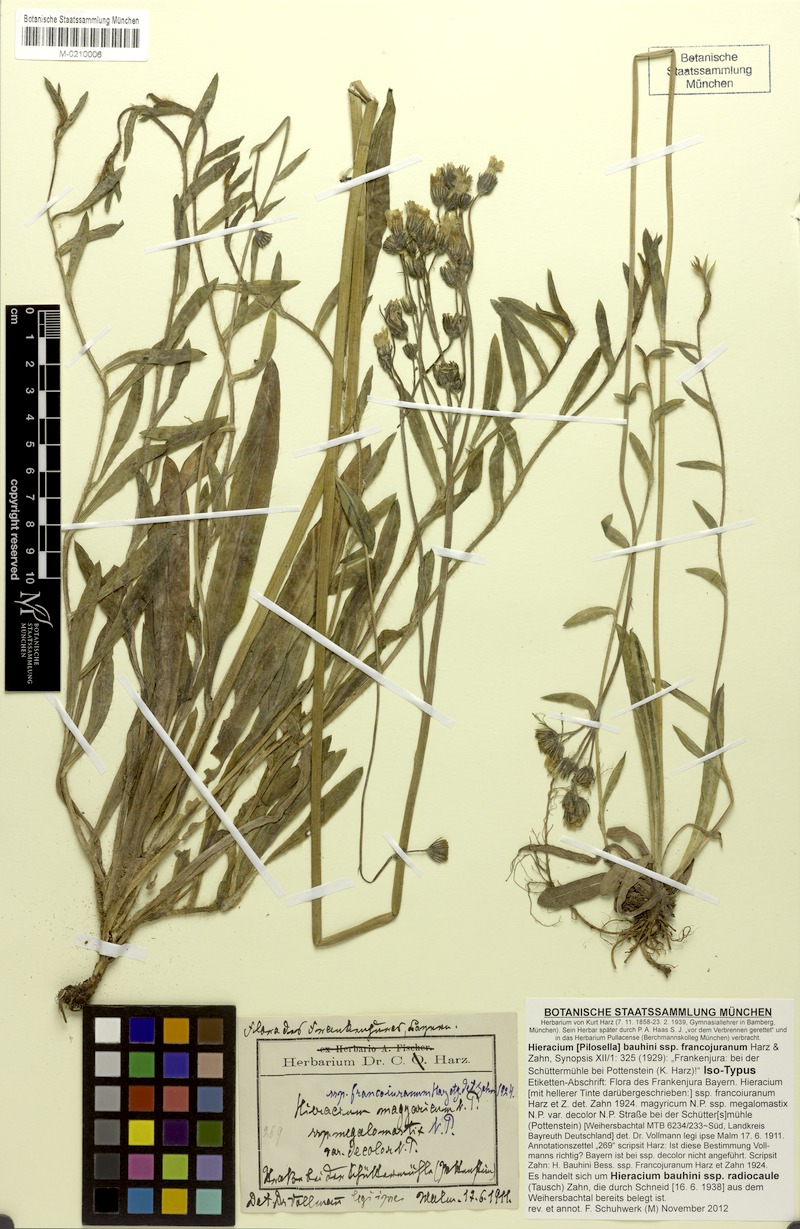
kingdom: Plantae
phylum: Tracheophyta
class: Magnoliopsida
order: Asterales
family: Asteraceae
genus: Pilosella
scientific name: Pilosella bauhini
